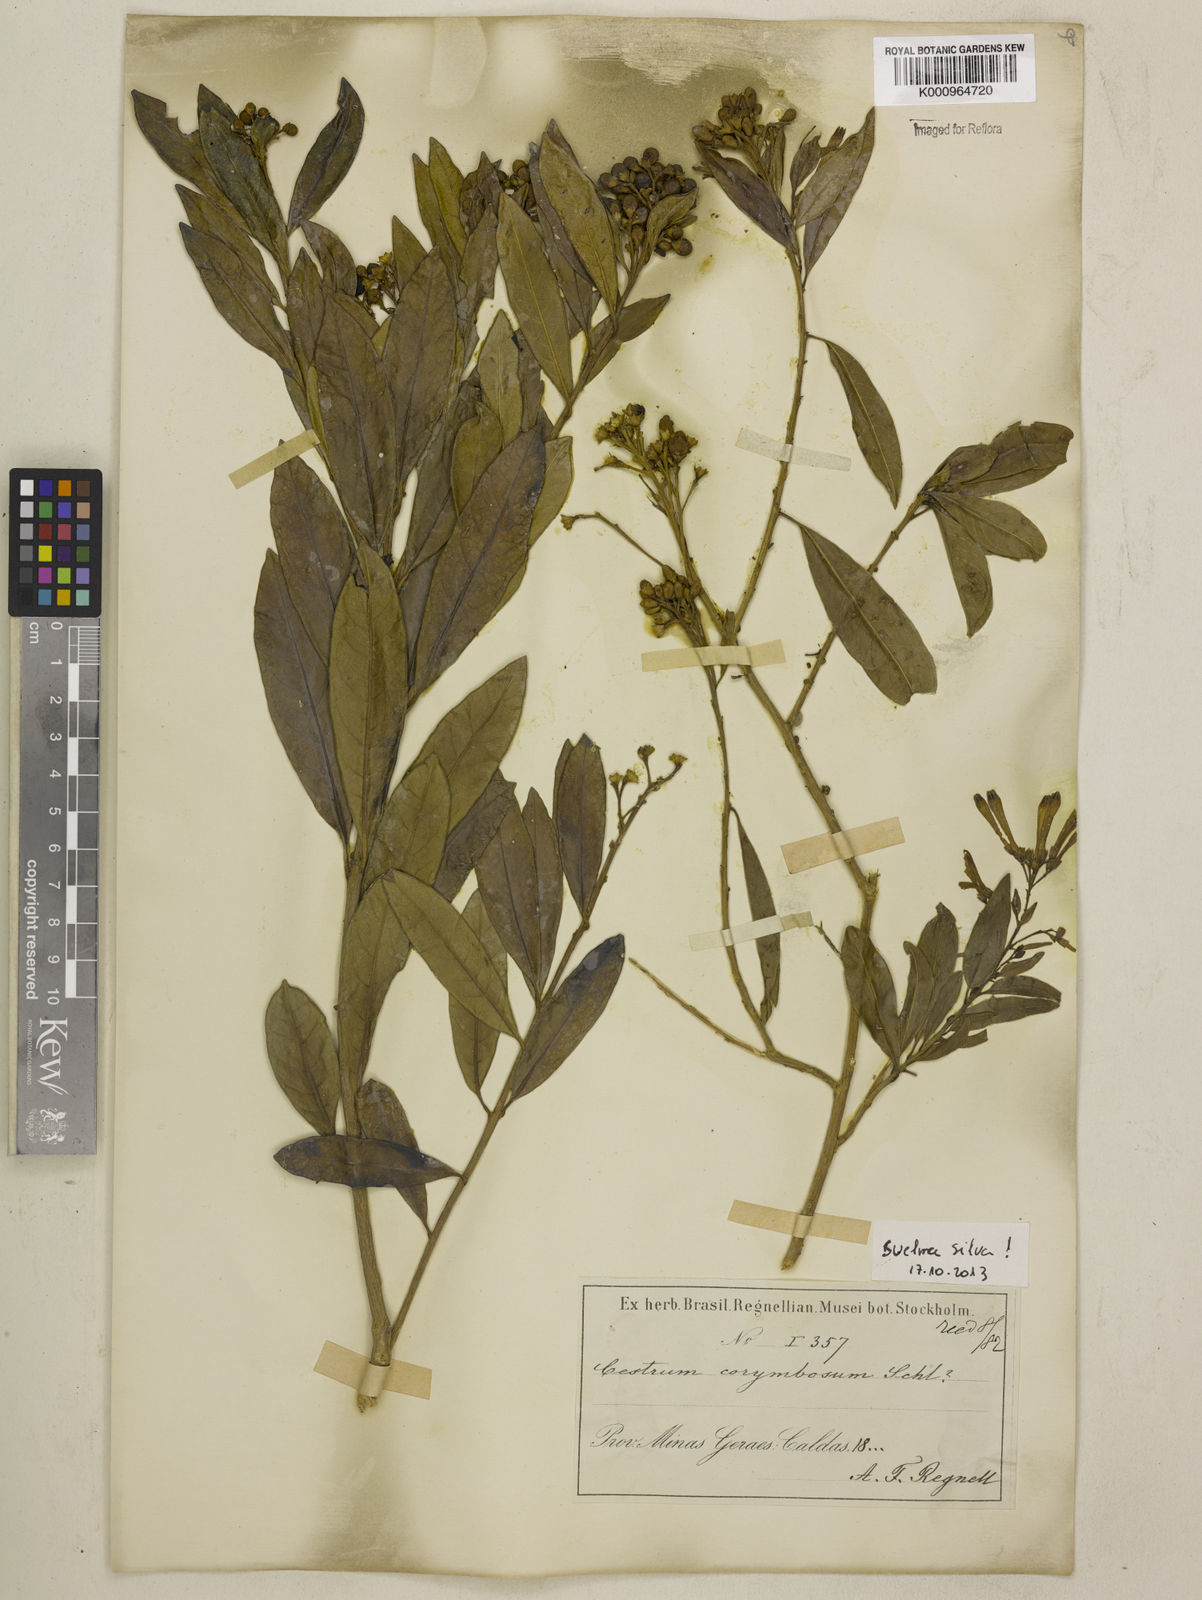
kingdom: Plantae
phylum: Tracheophyta
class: Magnoliopsida
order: Solanales
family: Solanaceae
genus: Cestrum
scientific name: Cestrum corymbosum
